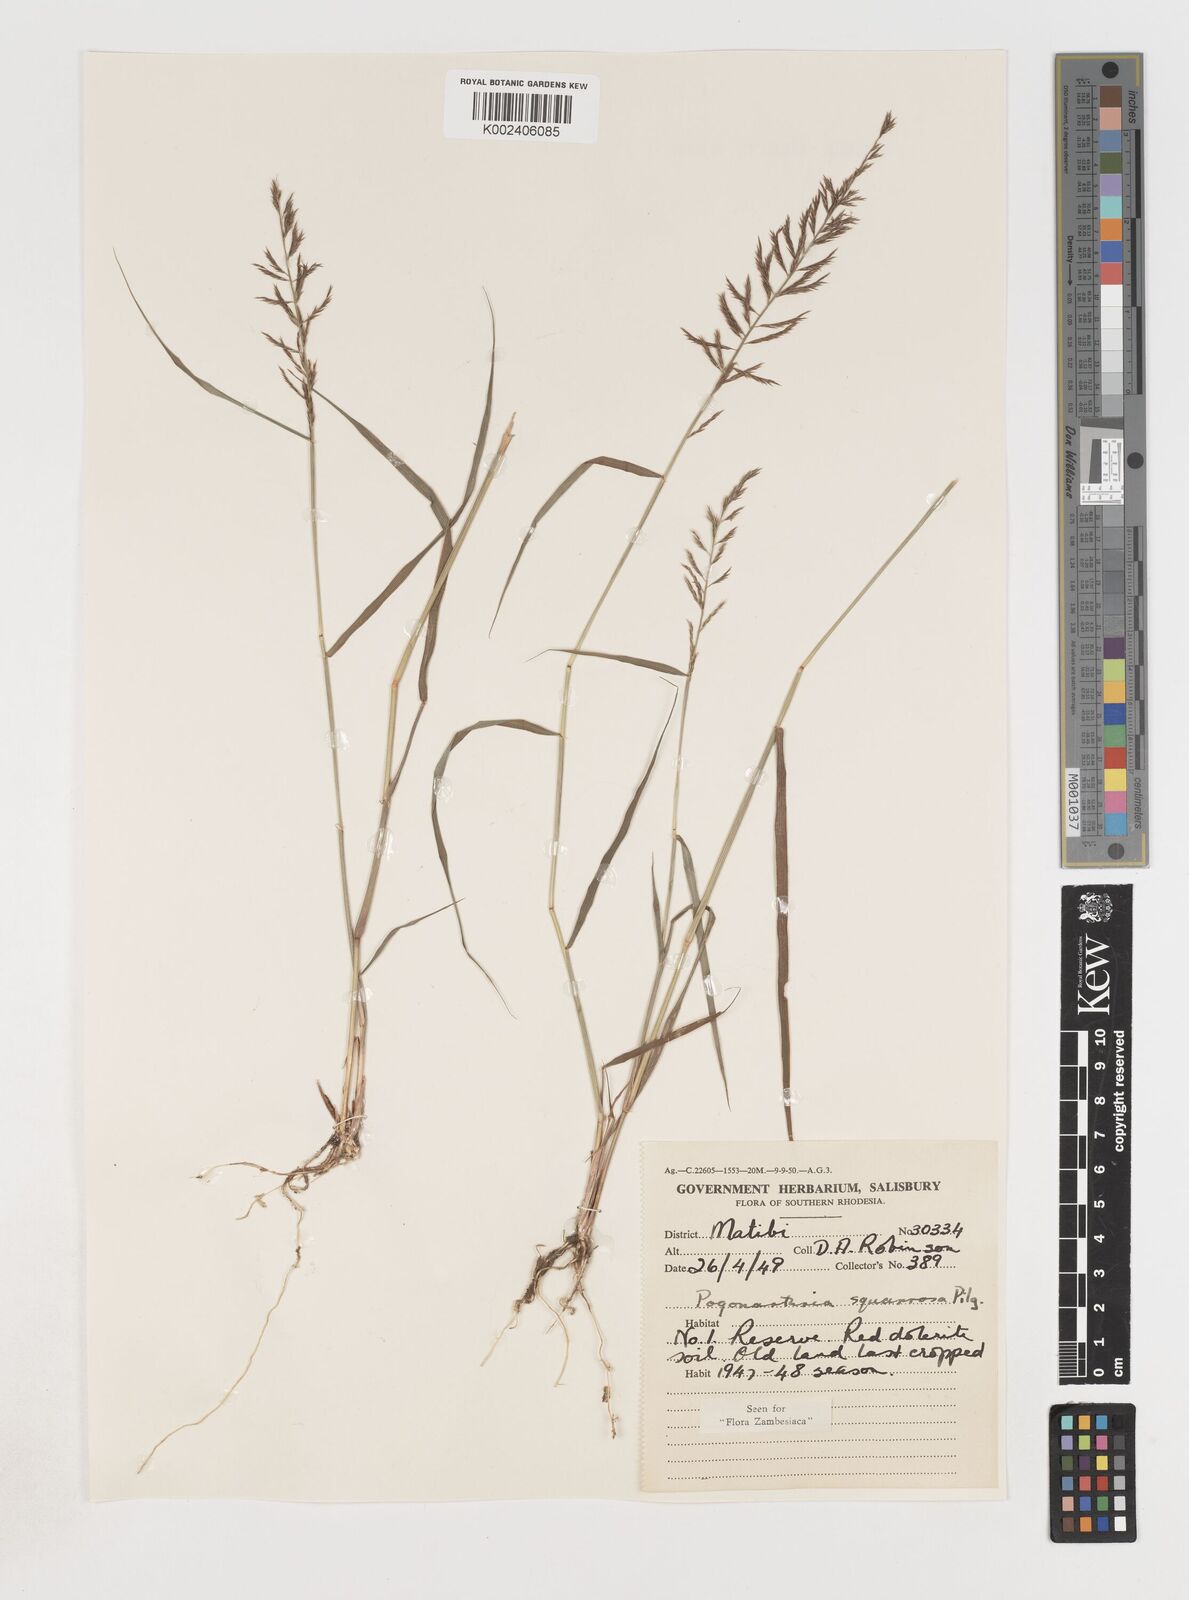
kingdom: Plantae
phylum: Tracheophyta
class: Liliopsida
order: Poales
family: Poaceae
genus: Pogonarthria
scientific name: Pogonarthria squarrosa
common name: Grass
